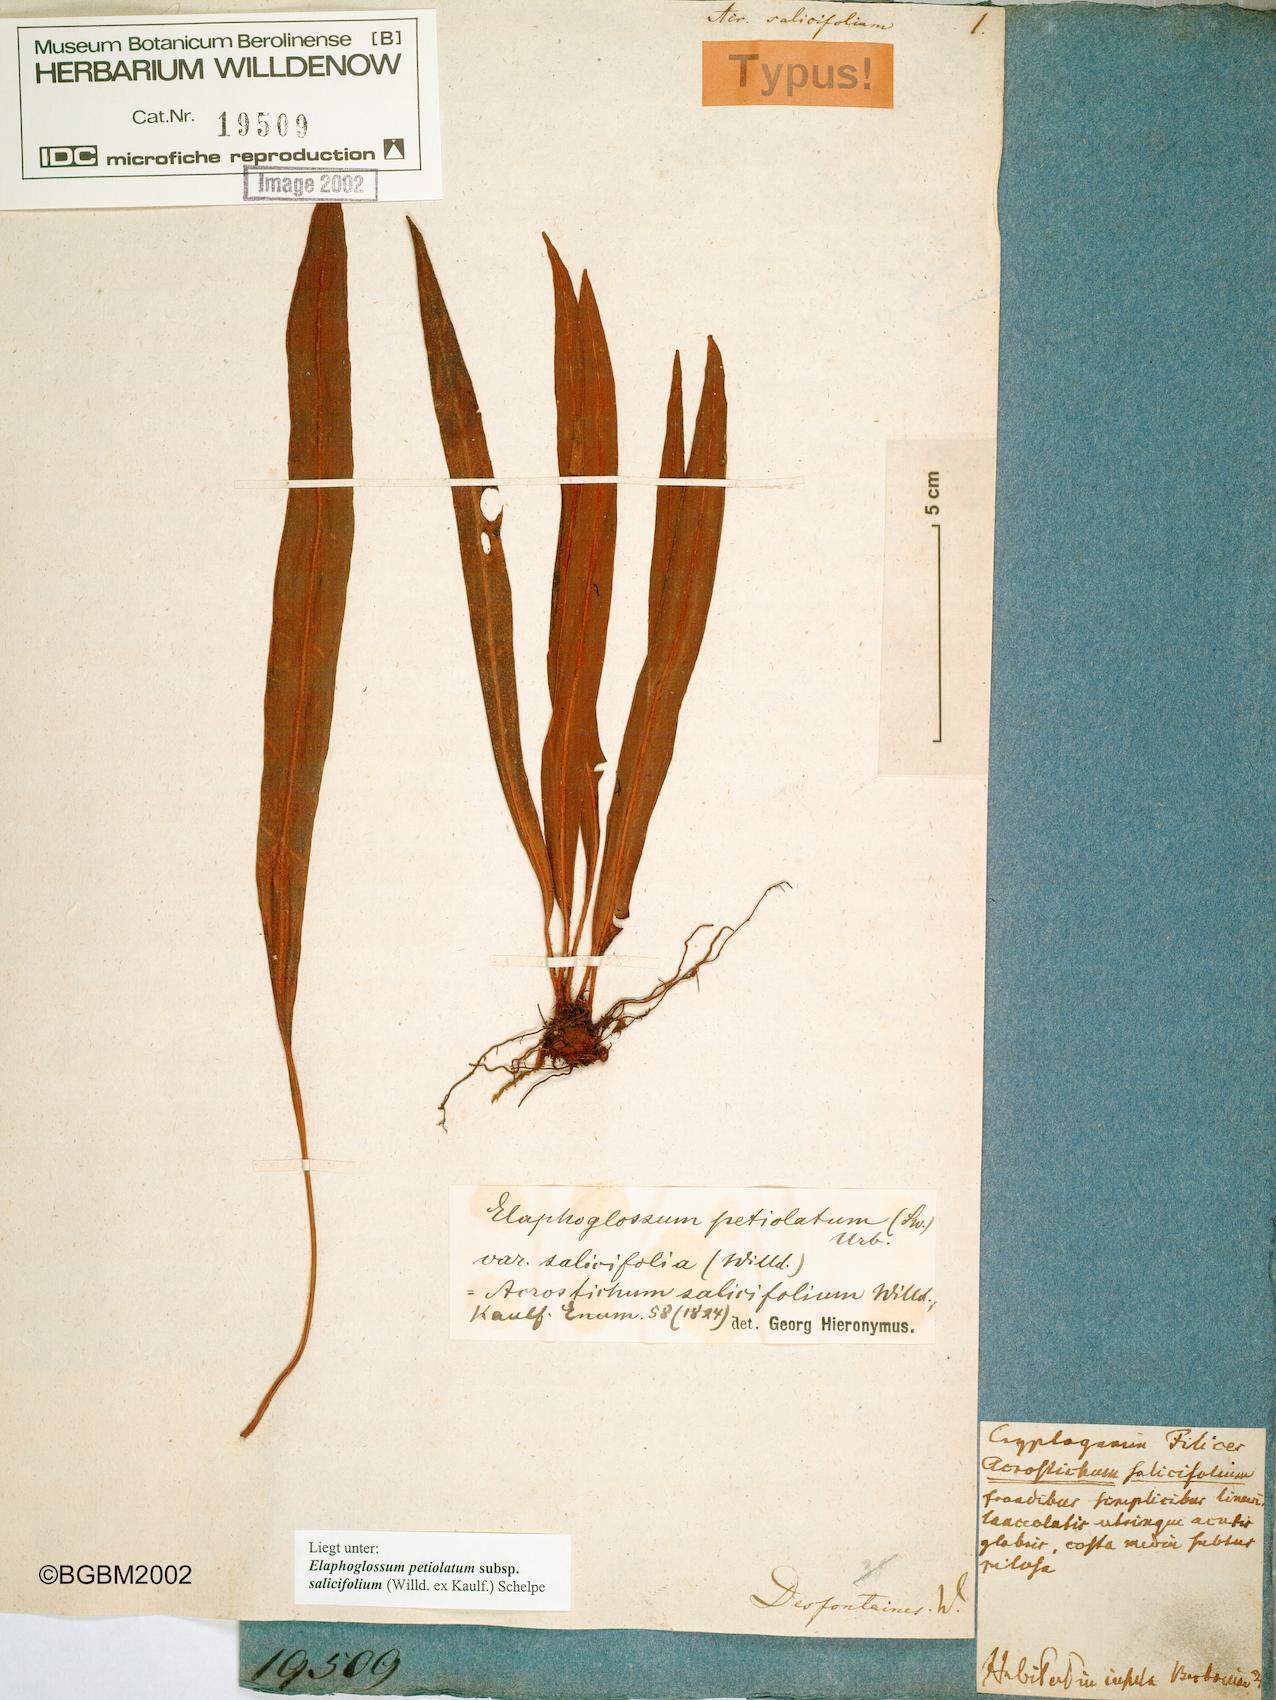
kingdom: Plantae
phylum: Tracheophyta
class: Polypodiopsida
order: Polypodiales
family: Dryopteridaceae
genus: Elaphoglossum
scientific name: Elaphoglossum lancifolium
